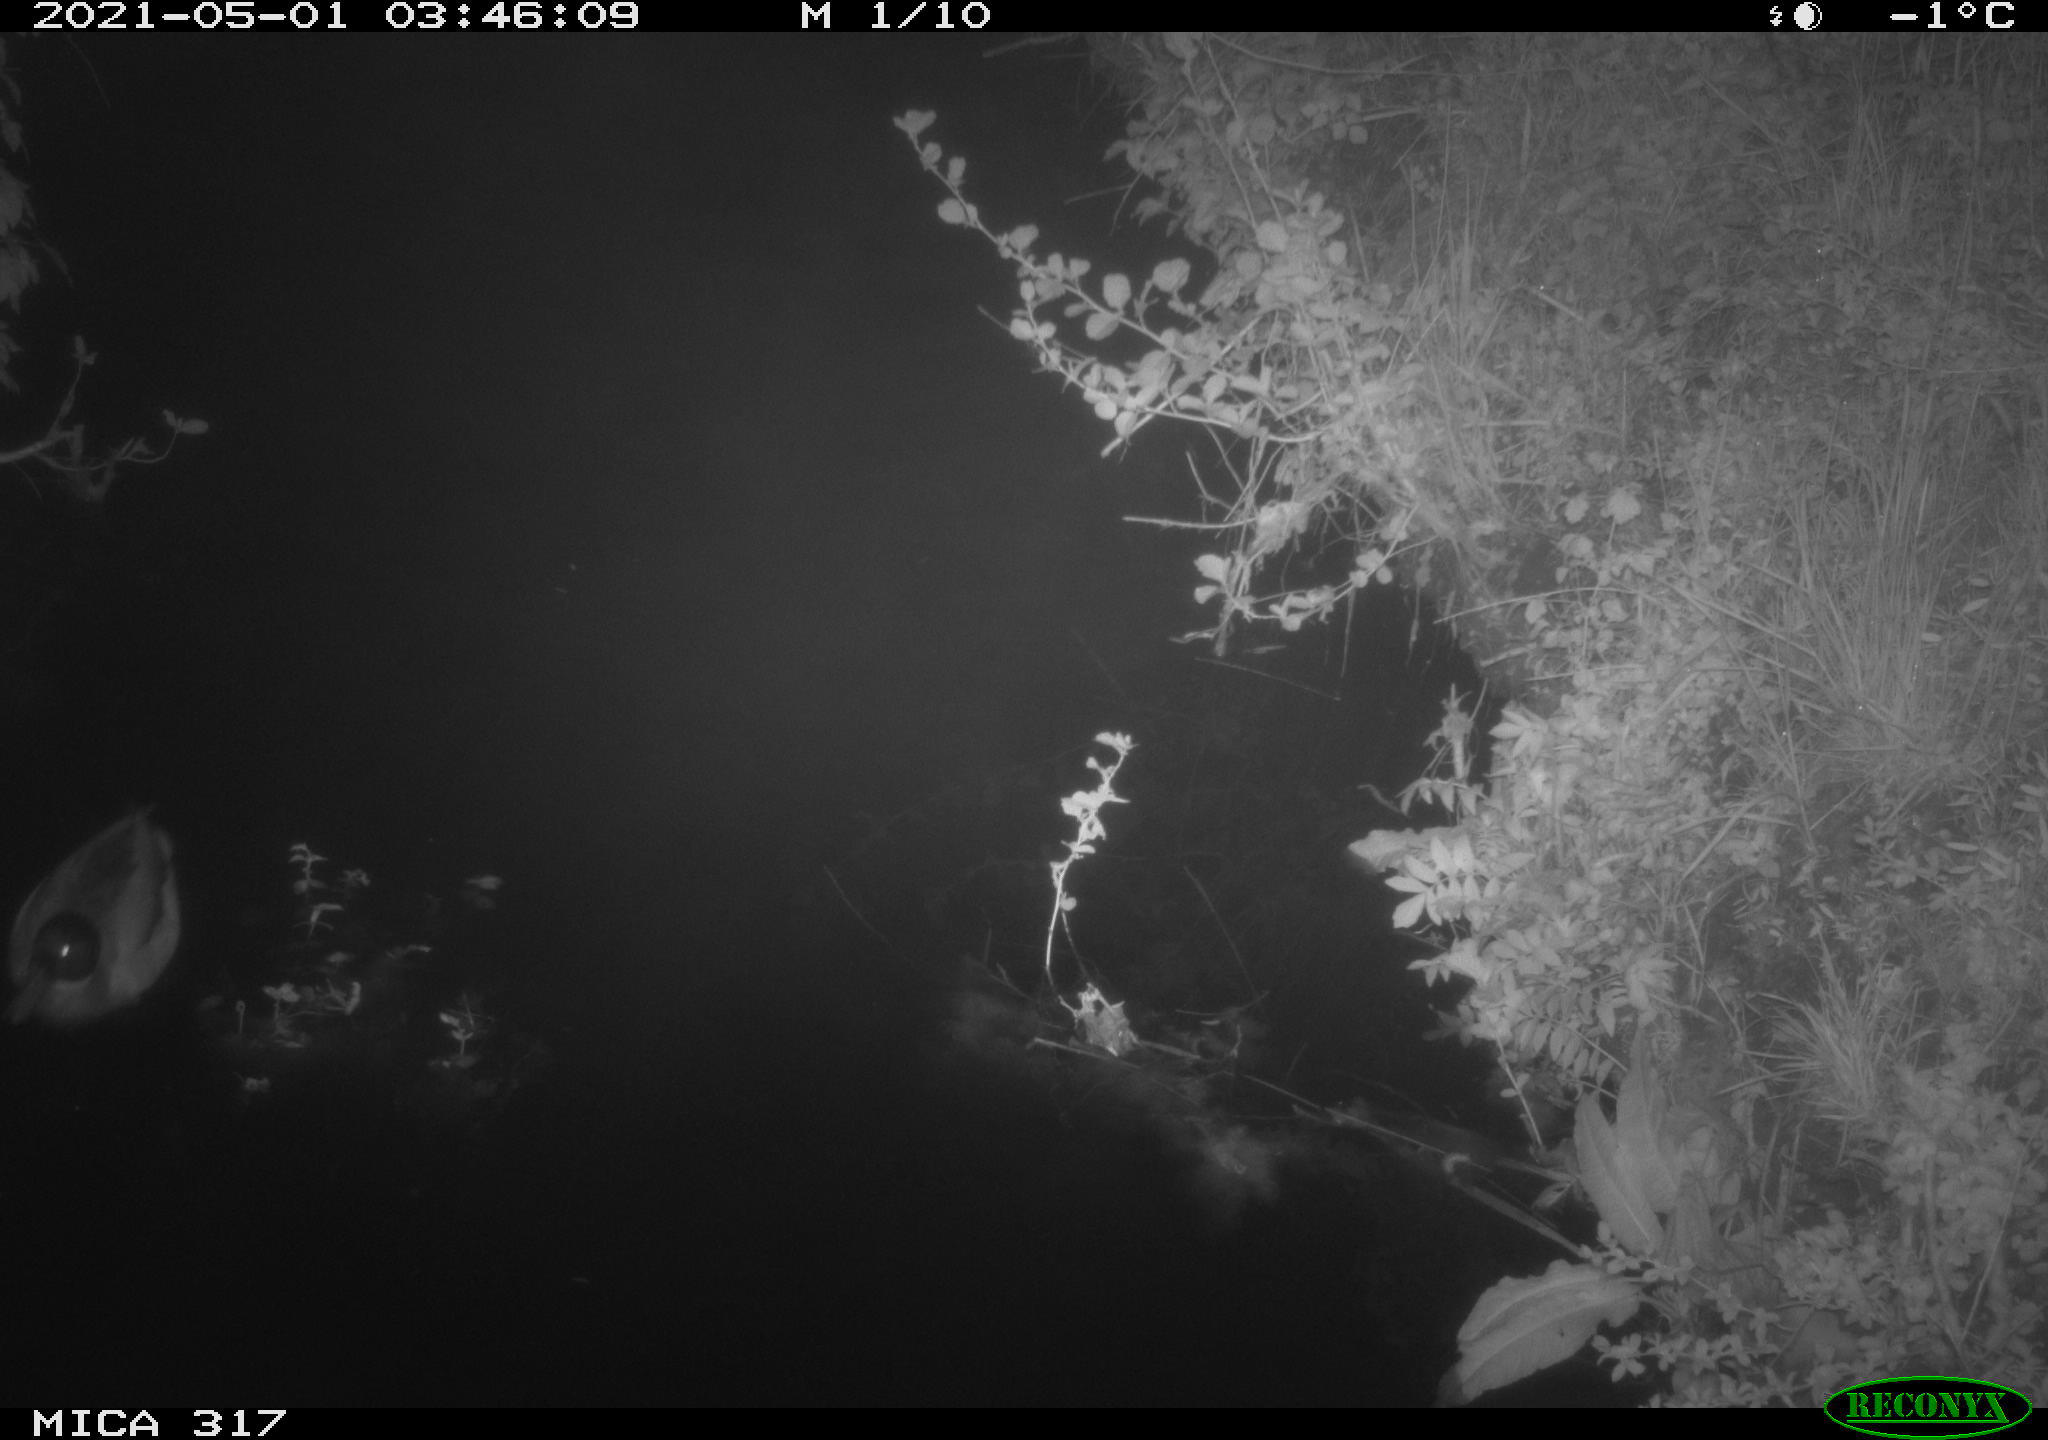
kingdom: Animalia
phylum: Chordata
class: Aves
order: Anseriformes
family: Anatidae
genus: Anas
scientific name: Anas
